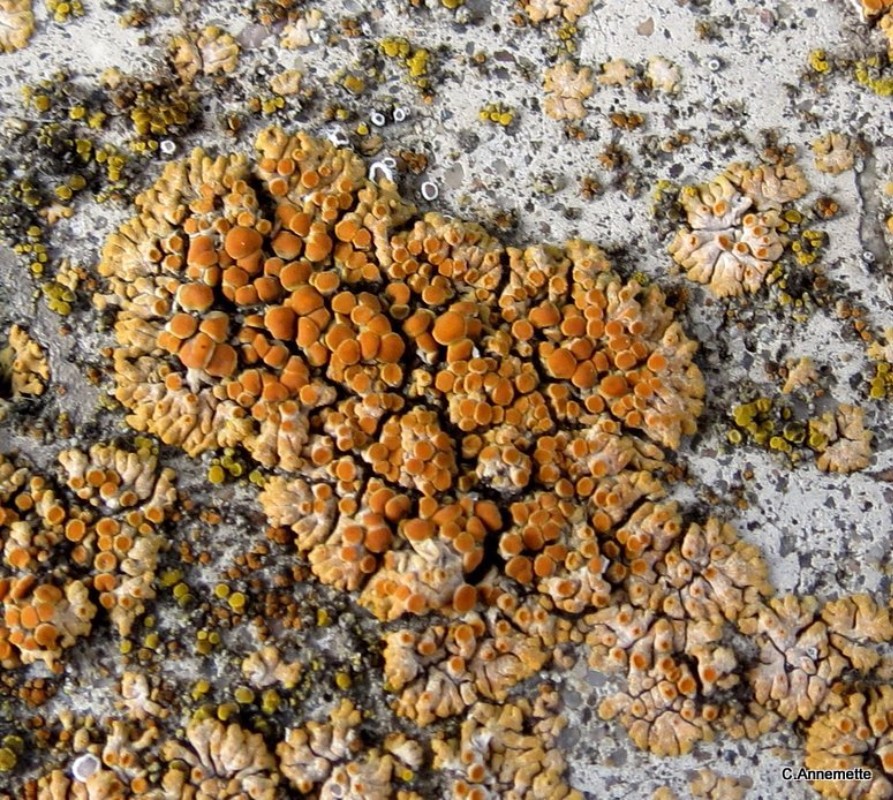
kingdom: Fungi
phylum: Ascomycota
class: Lecanoromycetes
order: Teloschistales
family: Teloschistaceae
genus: Calogaya
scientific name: Calogaya pusilla
